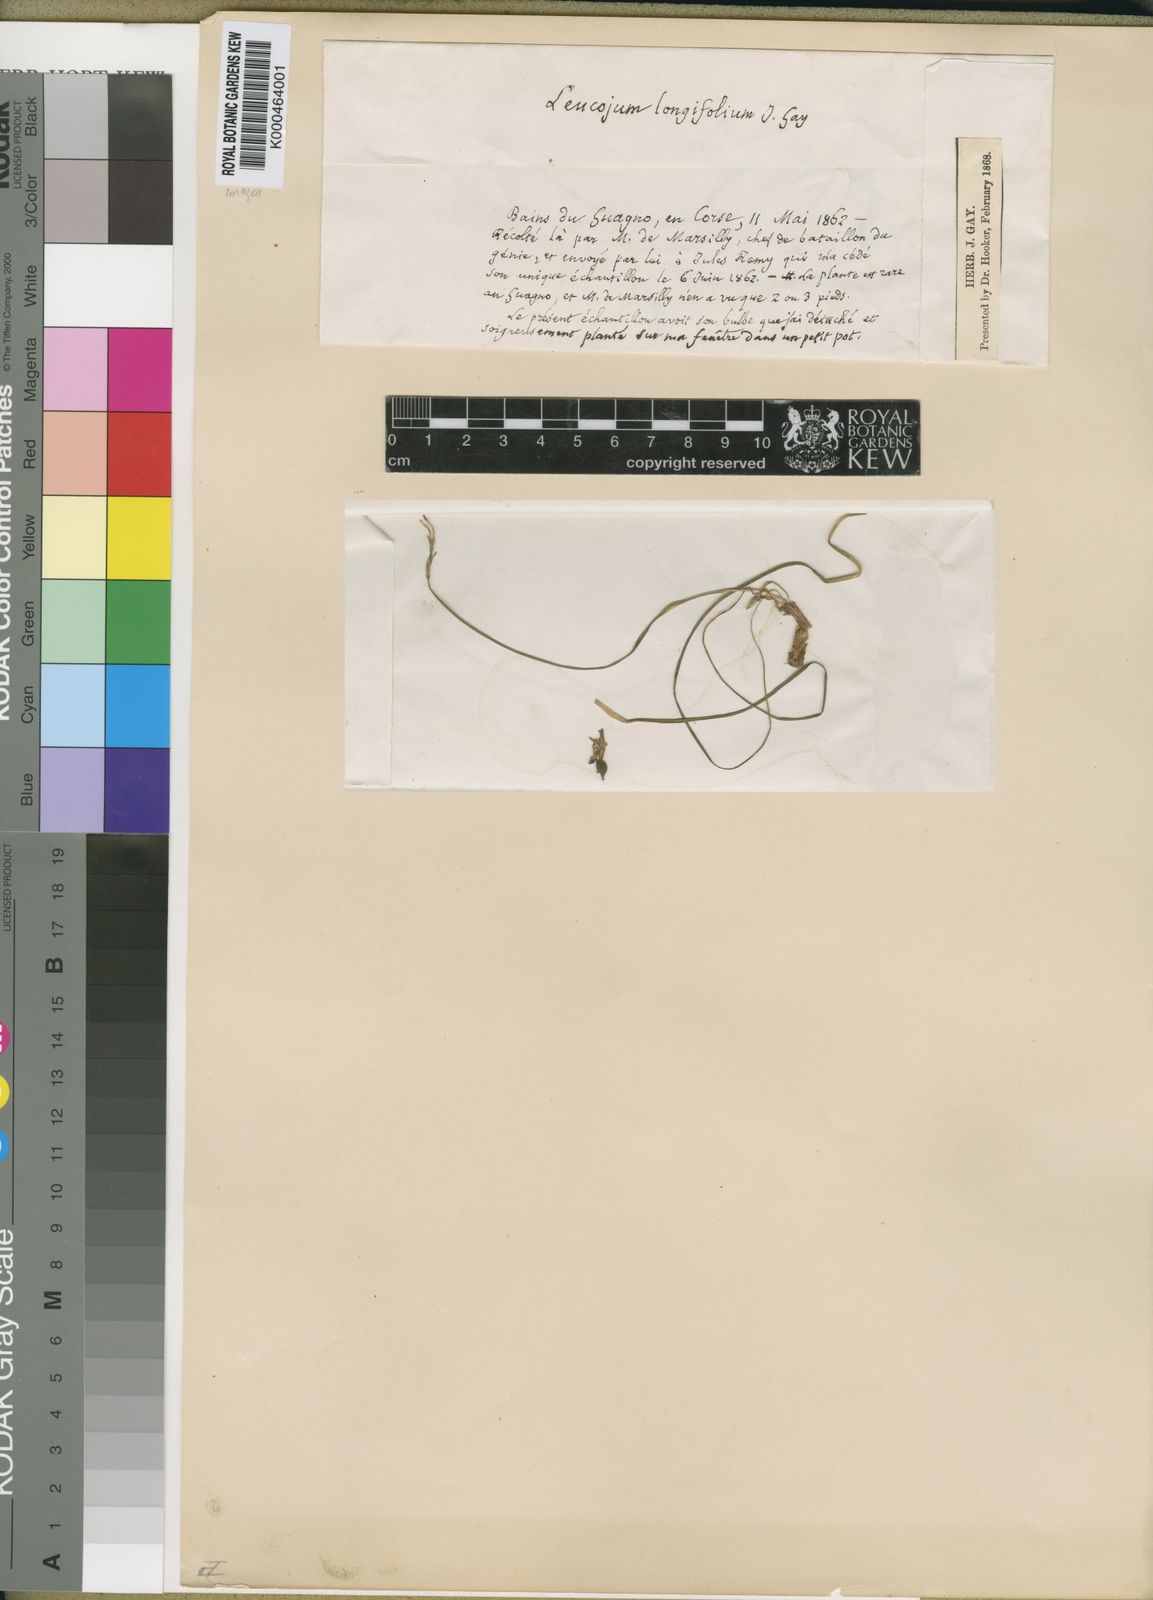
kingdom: Plantae
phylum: Tracheophyta
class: Liliopsida
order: Asparagales
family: Amaryllidaceae
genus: Leucojum
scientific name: Leucojum
